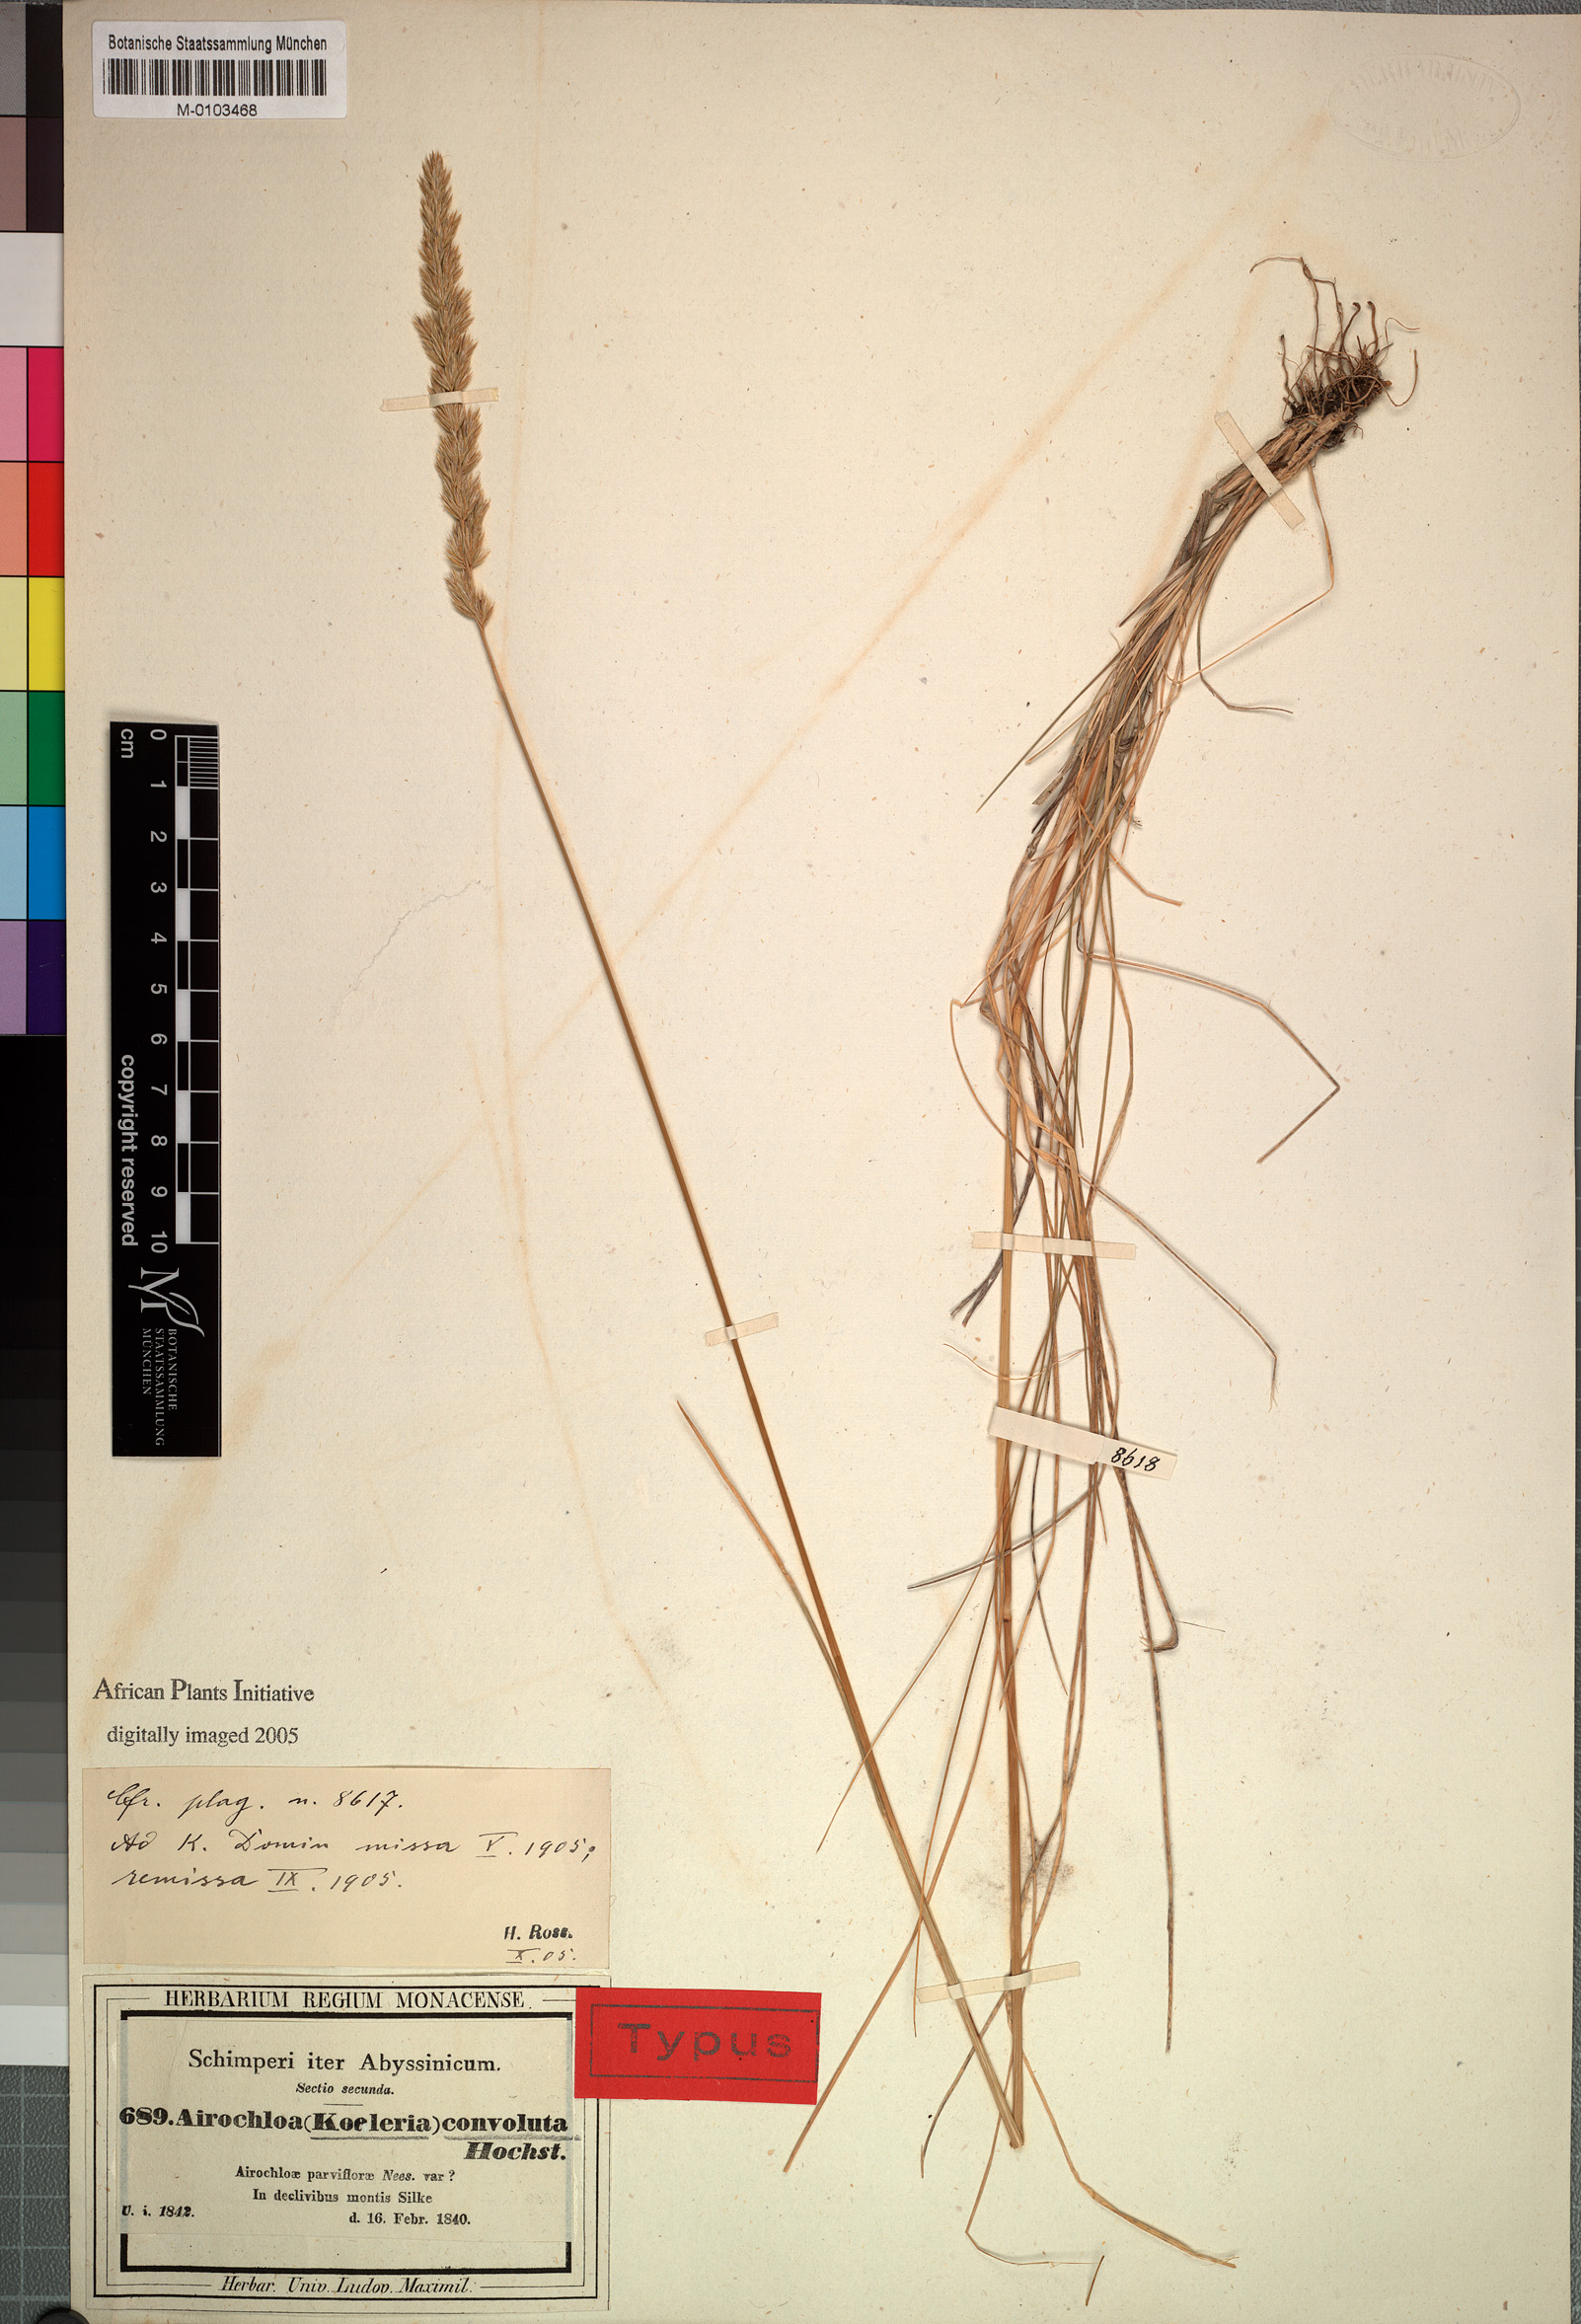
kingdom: Plantae
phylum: Tracheophyta
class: Liliopsida
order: Poales
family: Poaceae
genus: Koeleria
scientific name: Koeleria capensis
